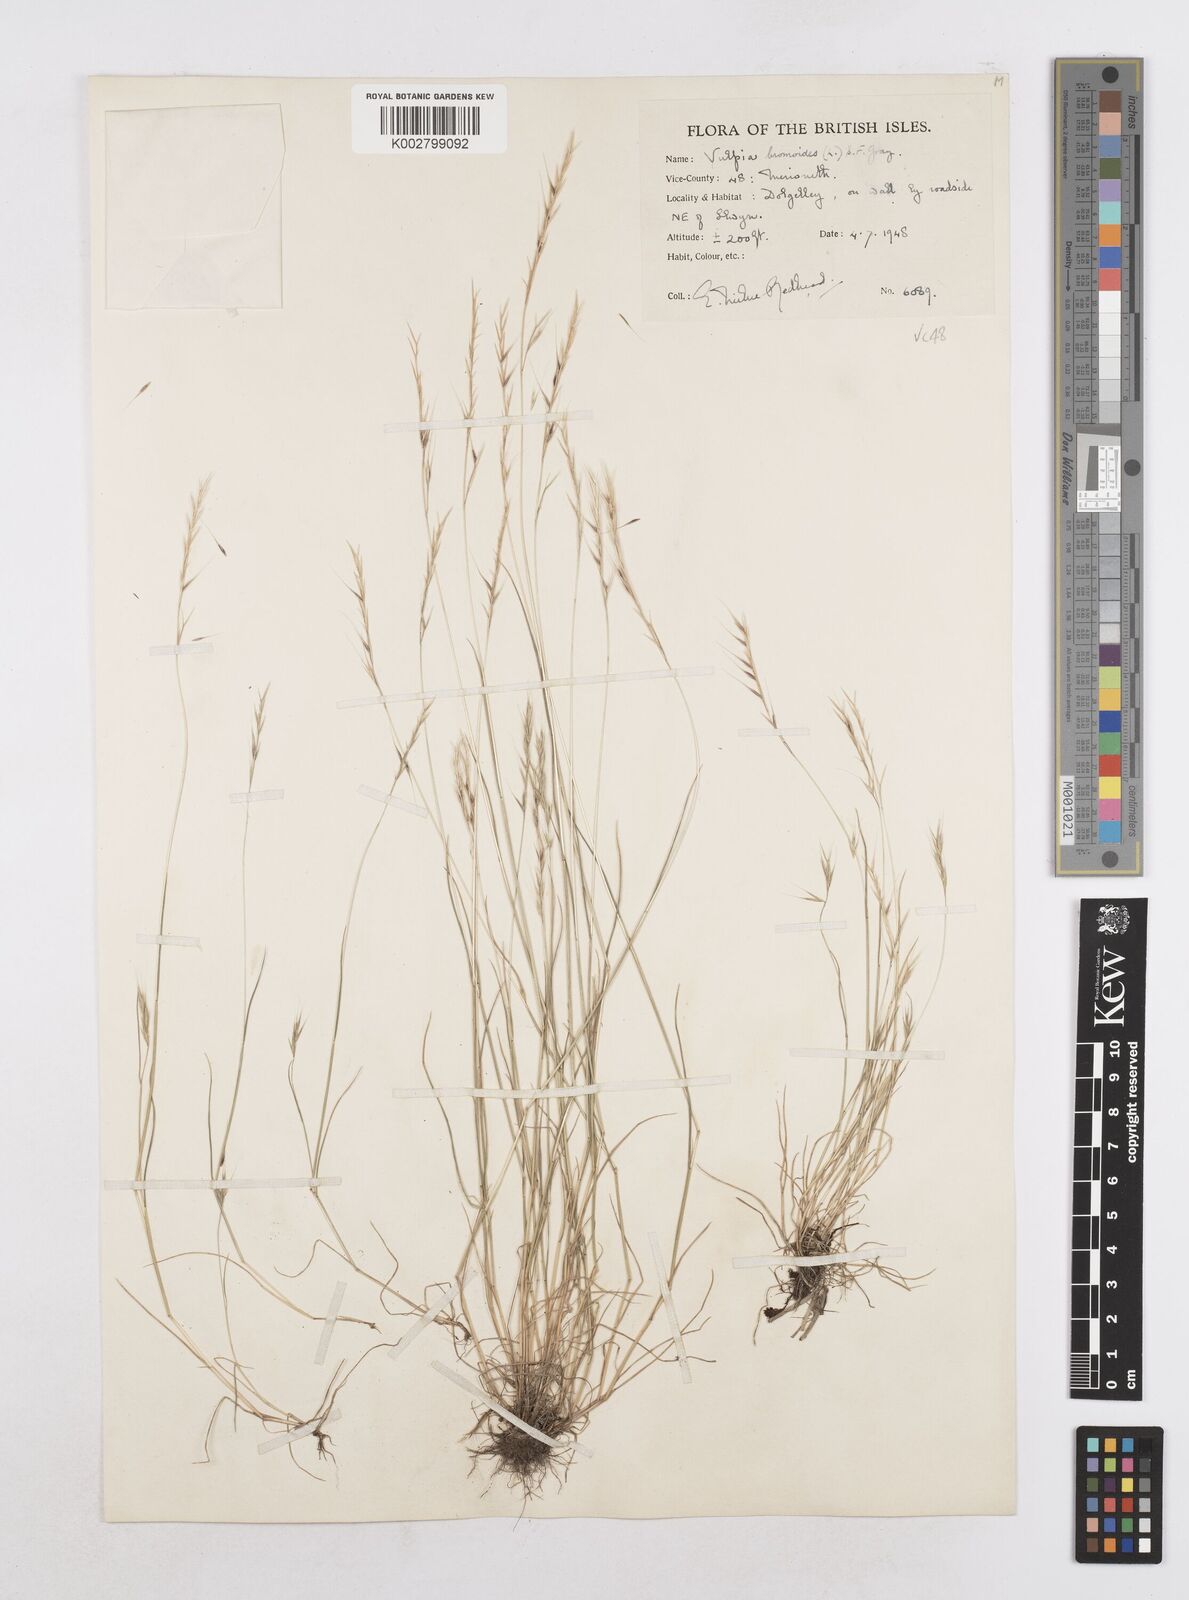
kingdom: Plantae
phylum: Tracheophyta
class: Liliopsida
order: Poales
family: Poaceae
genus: Festuca
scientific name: Festuca bromoides
